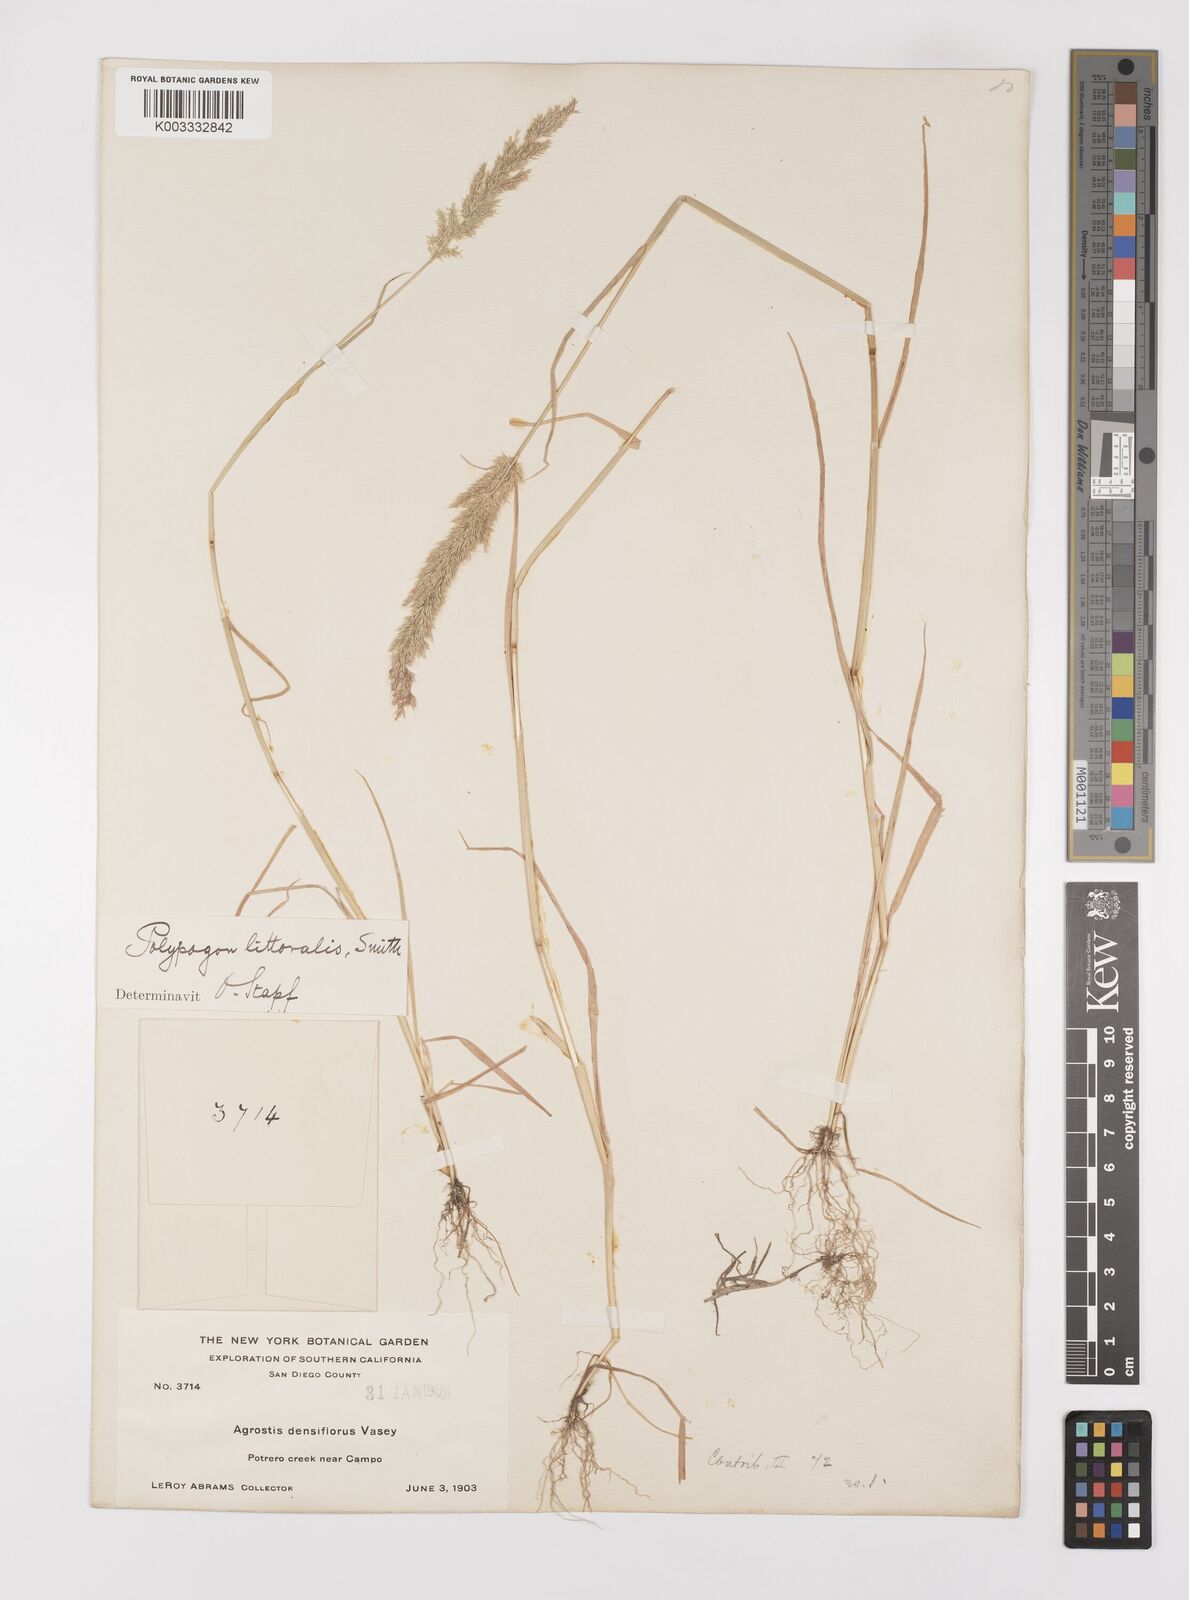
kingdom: Plantae
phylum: Tracheophyta
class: Liliopsida
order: Poales
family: Poaceae
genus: Polypogon
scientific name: Polypogon interruptus
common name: Ditch polypogon
